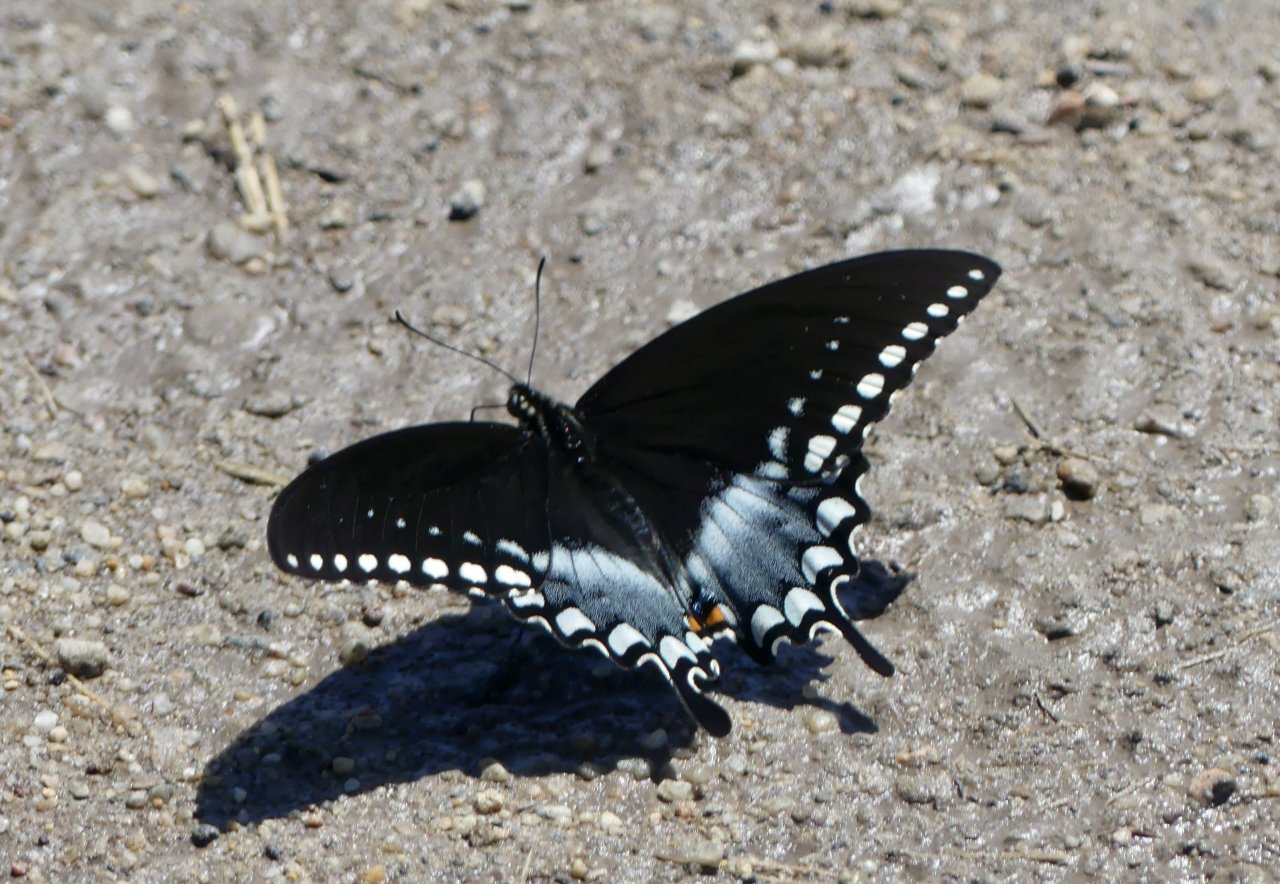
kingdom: Animalia
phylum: Arthropoda
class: Insecta
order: Lepidoptera
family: Papilionidae
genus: Pterourus
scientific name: Pterourus troilus
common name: Spicebush Swallowtail
